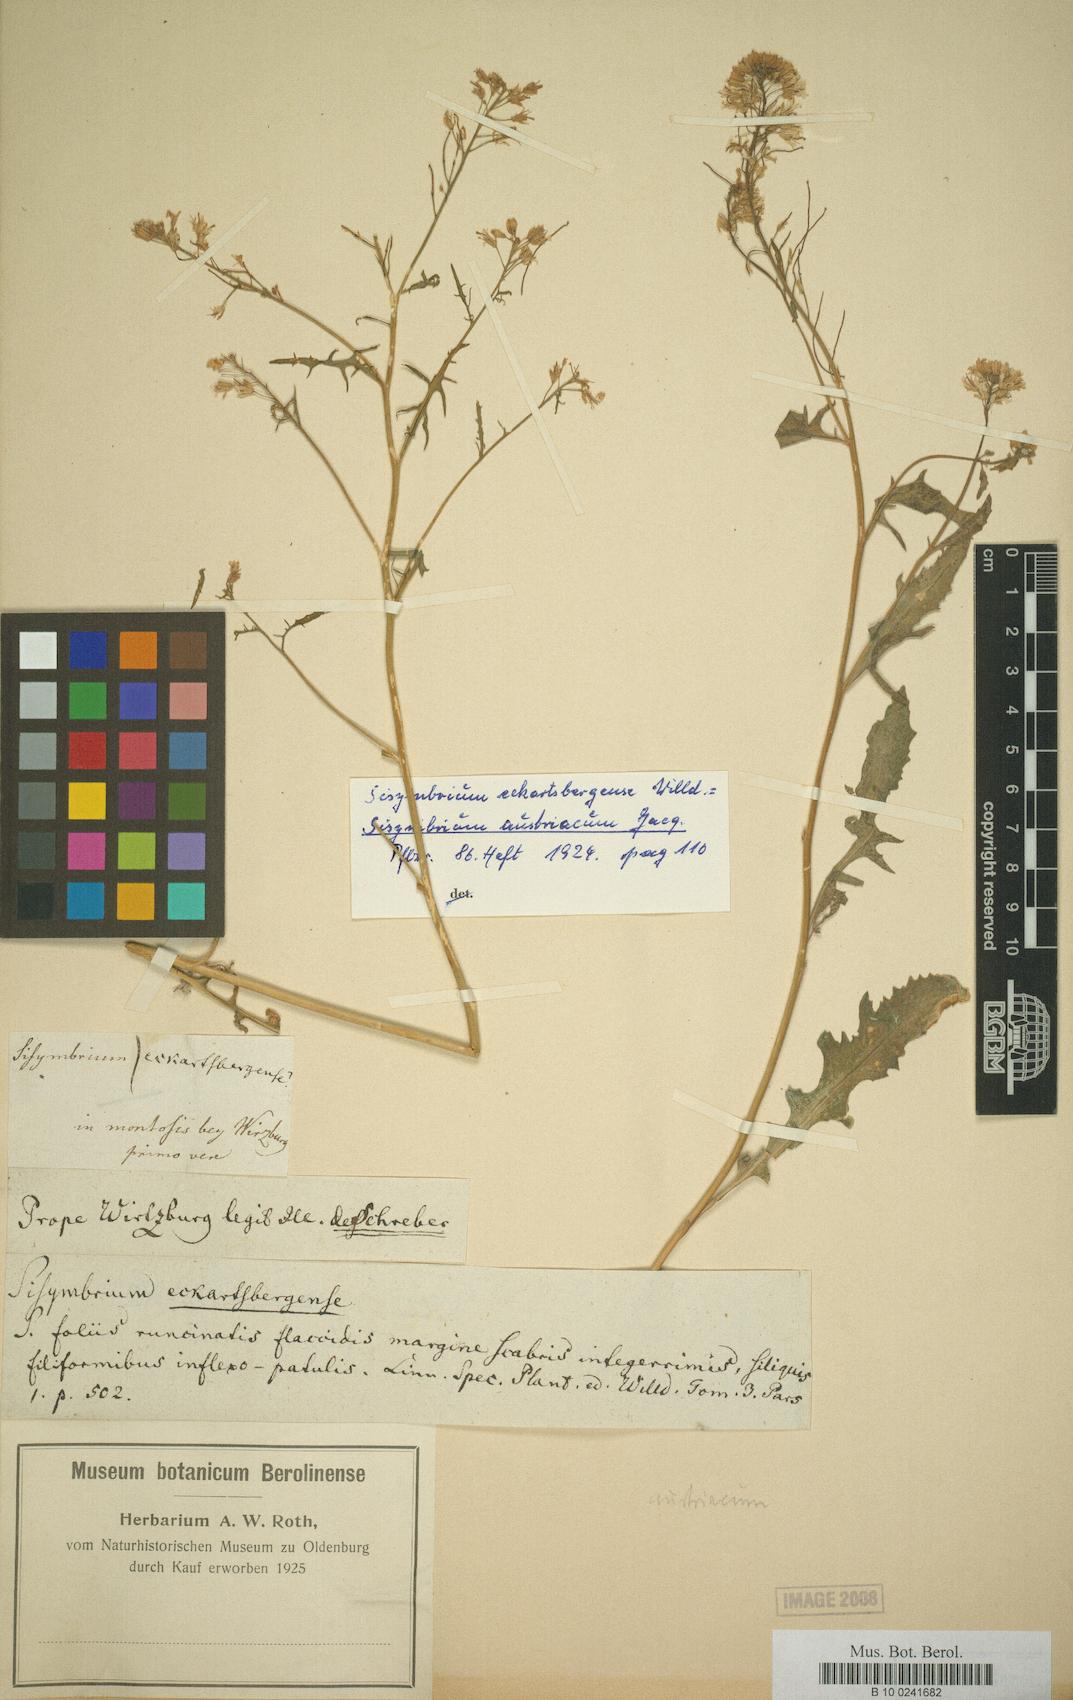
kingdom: Plantae
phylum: Tracheophyta
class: Magnoliopsida
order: Brassicales
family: Brassicaceae
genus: Sisymbrium
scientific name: Sisymbrium austriacum
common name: Jeweled rocket
